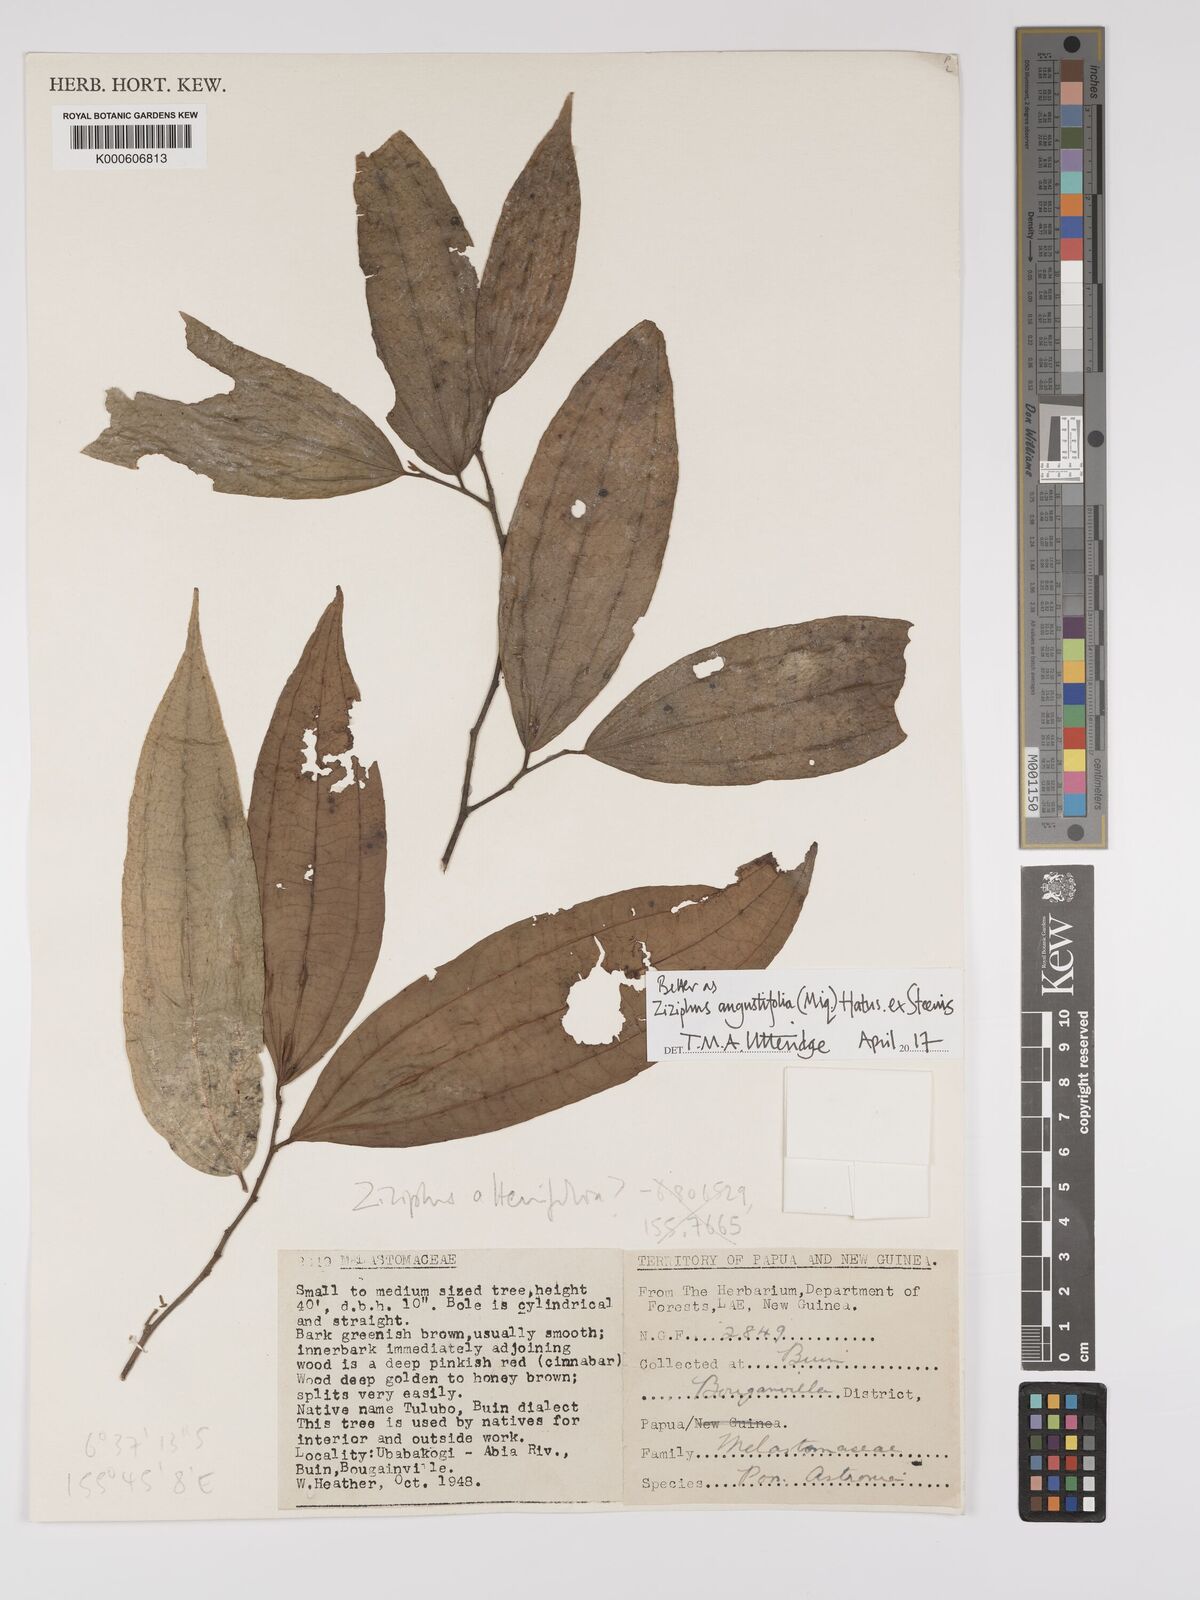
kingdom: Plantae
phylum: Tracheophyta
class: Magnoliopsida
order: Rosales
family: Rhamnaceae
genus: Ziziphus
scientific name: Ziziphus angustifolia
